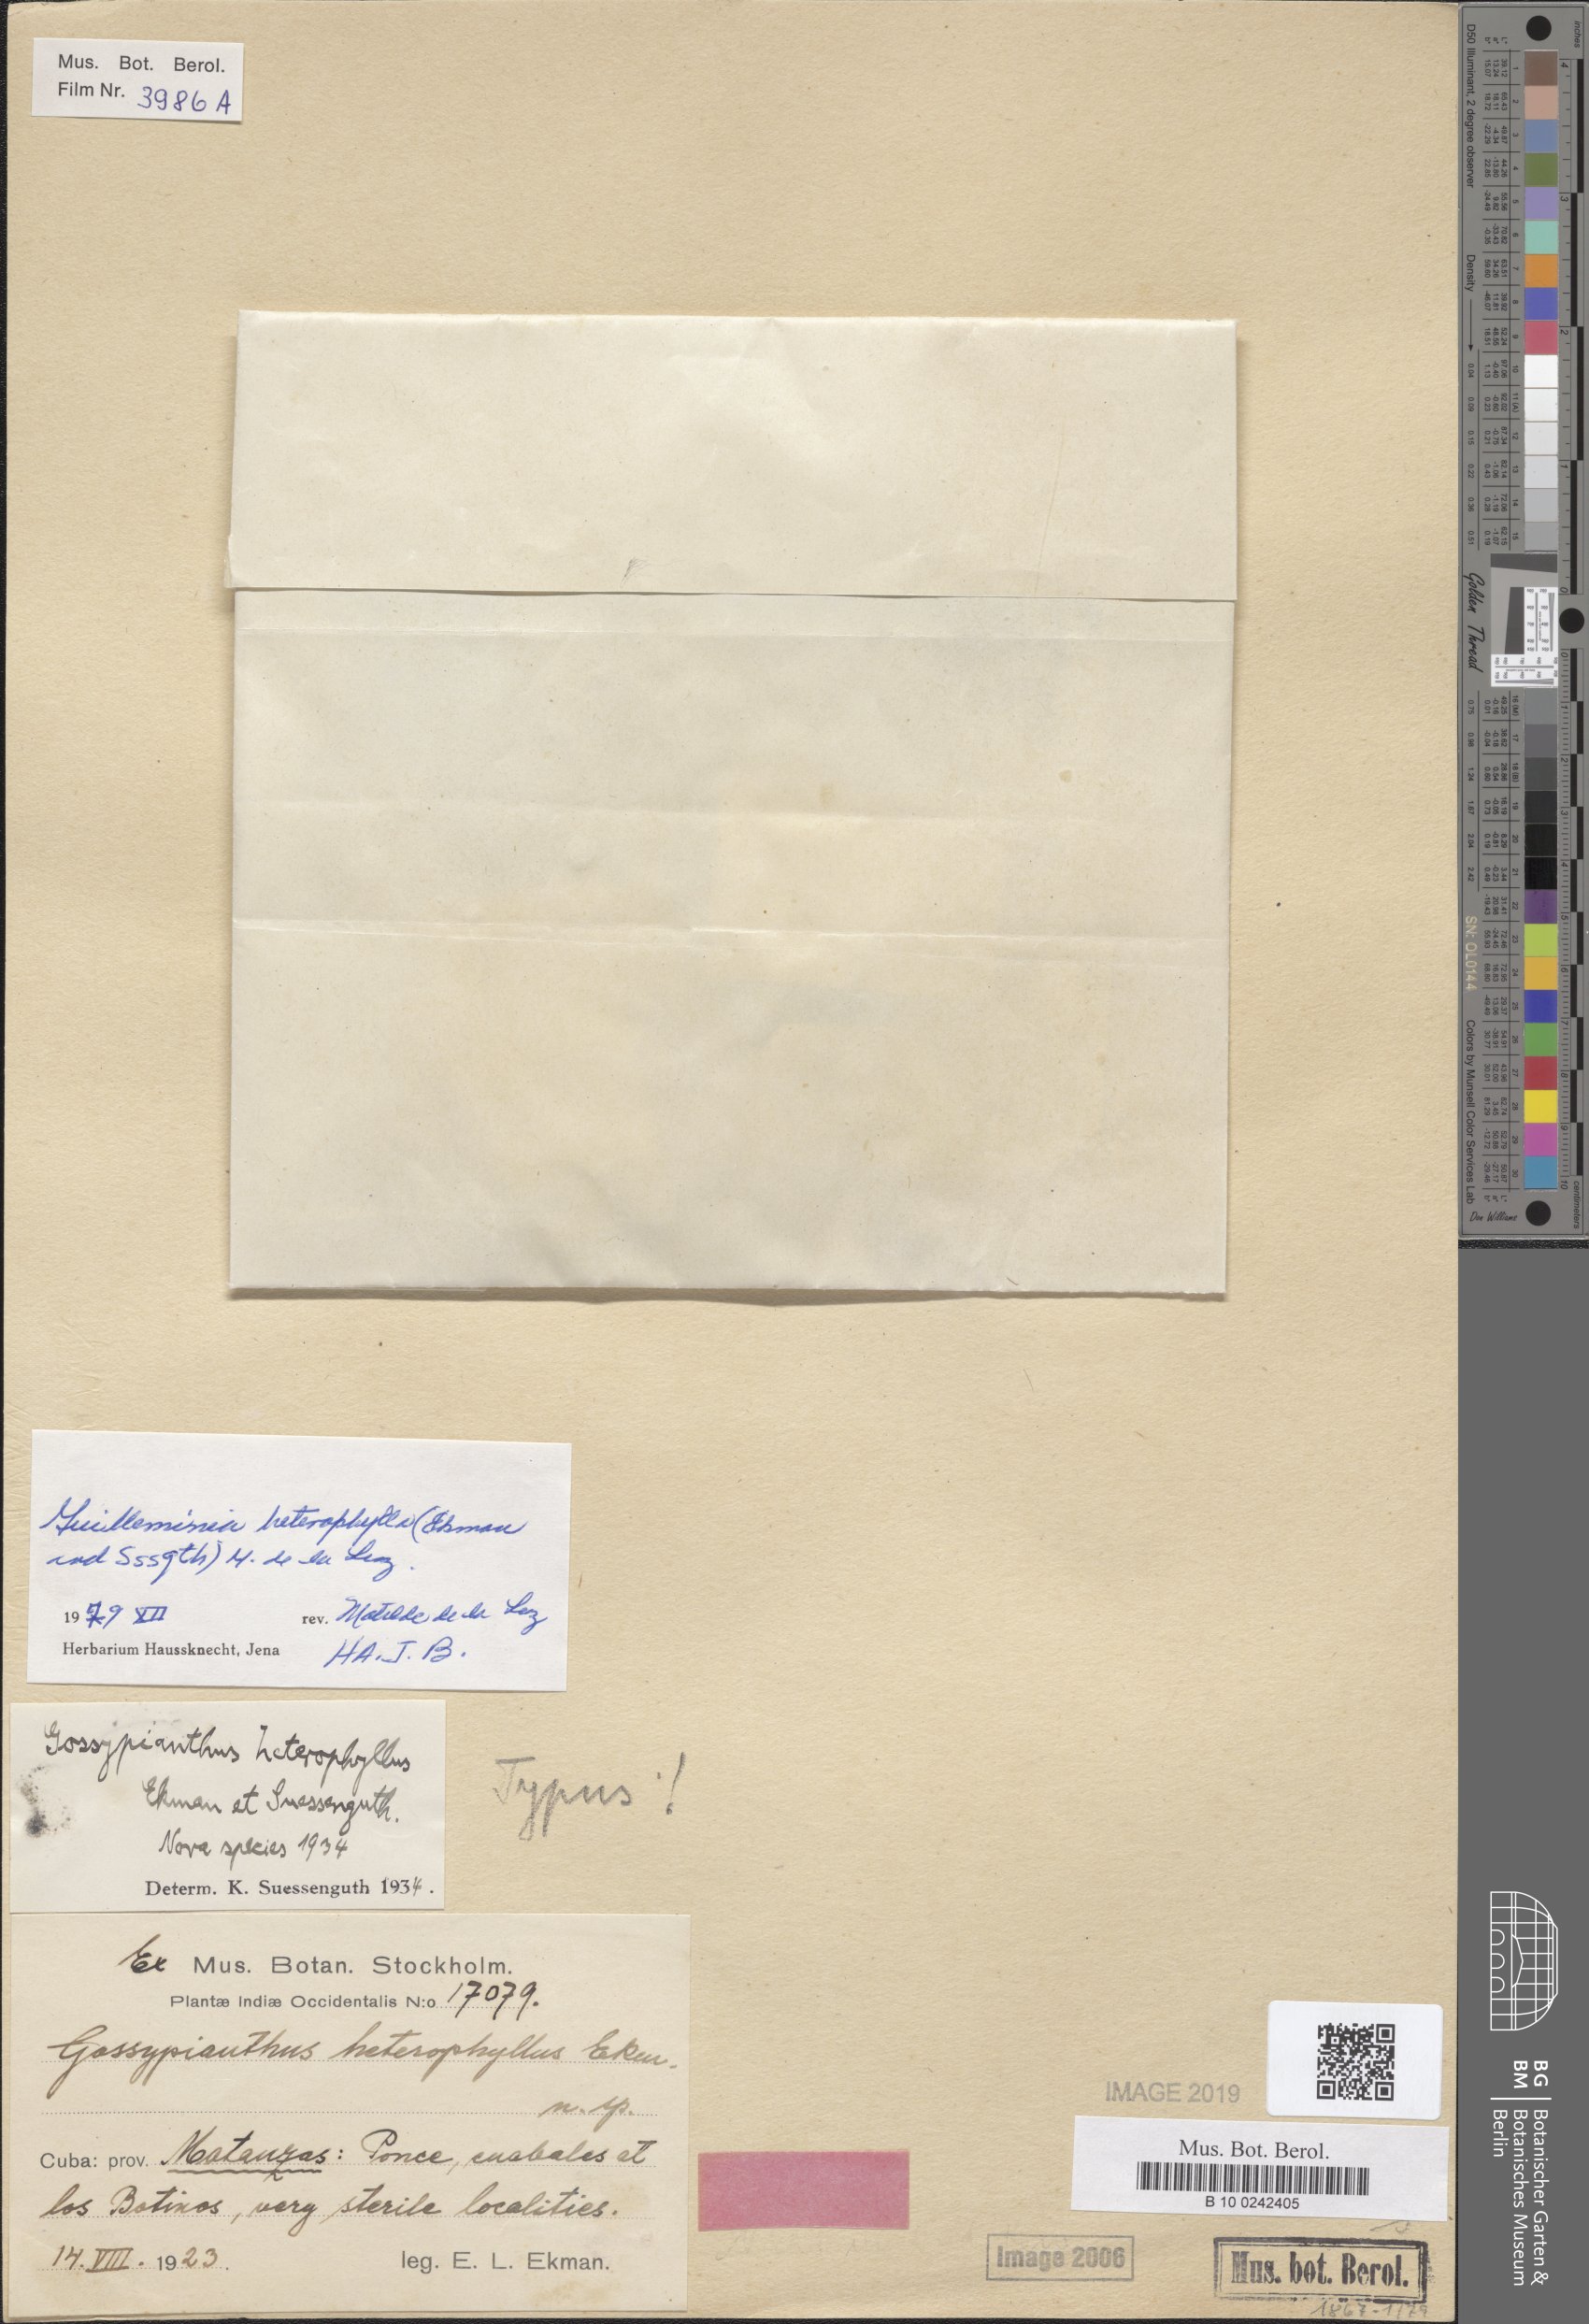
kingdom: Plantae
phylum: Tracheophyta
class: Magnoliopsida
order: Caryophyllales
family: Amaranthaceae
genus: Gomphrena
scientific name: Gomphrena brittonii
